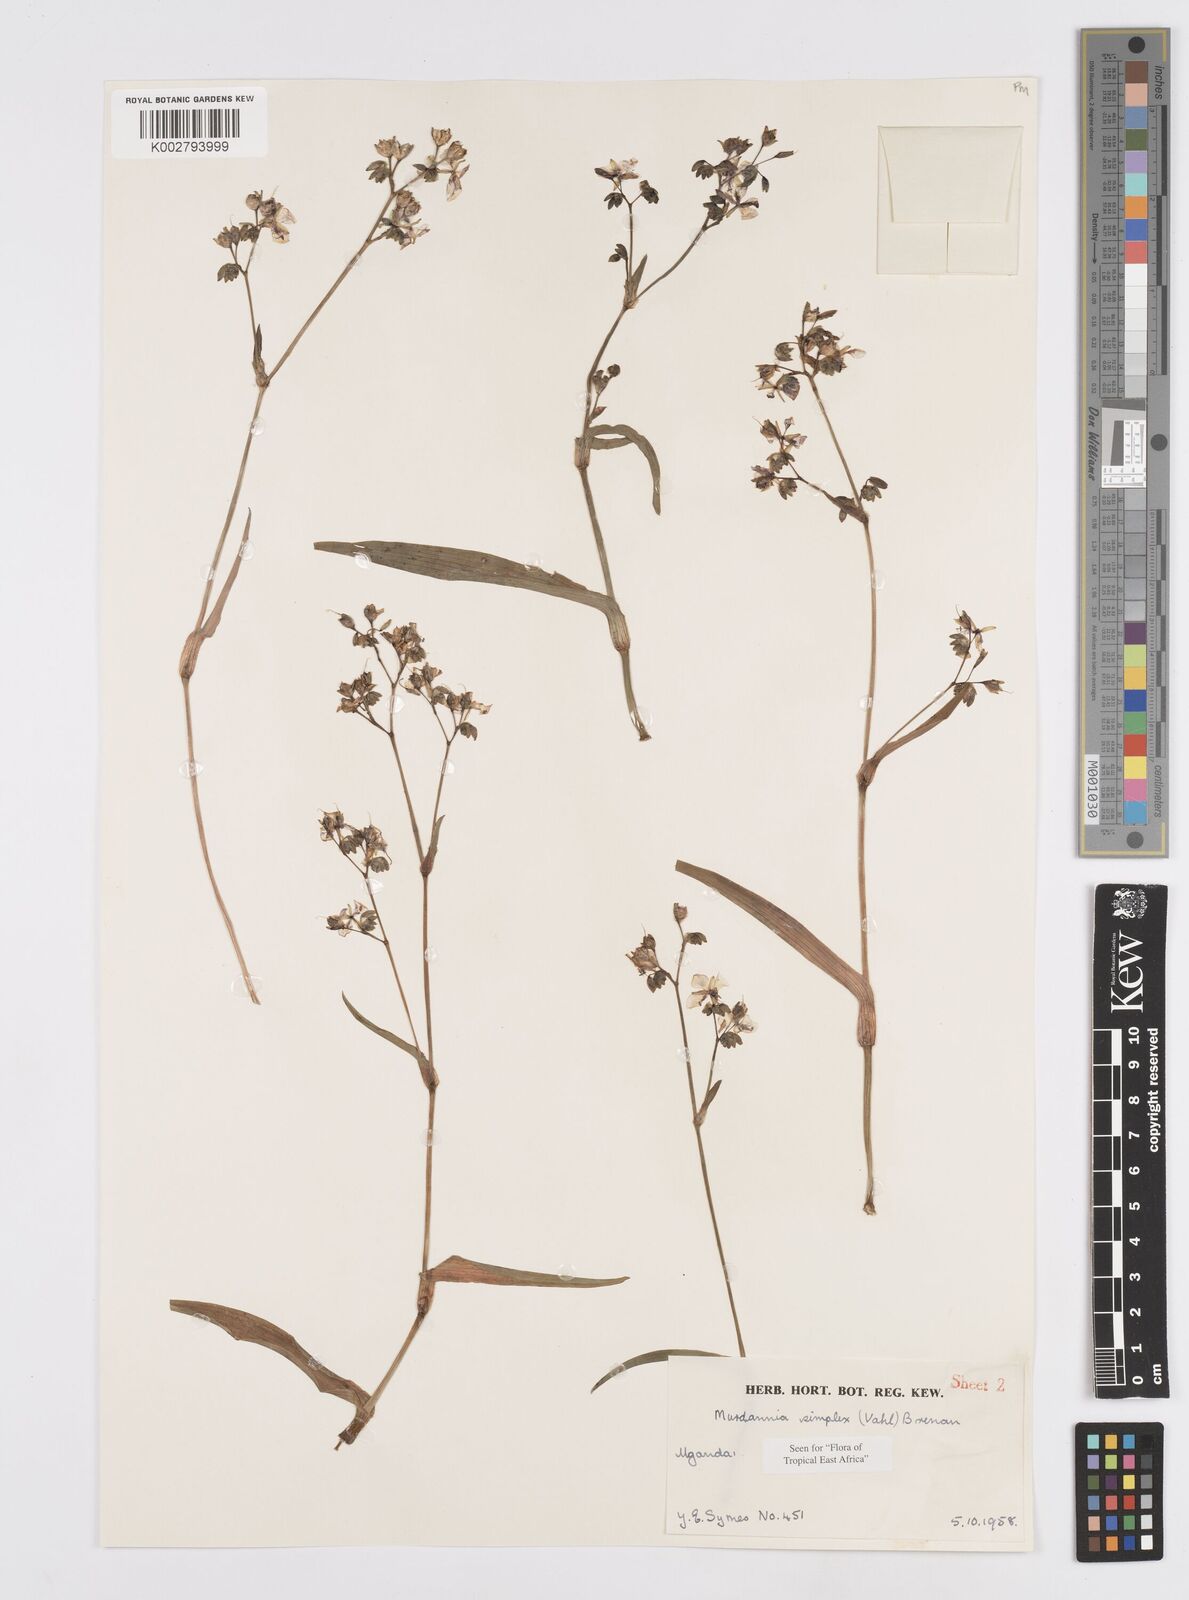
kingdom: Plantae
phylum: Tracheophyta
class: Liliopsida
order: Commelinales
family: Commelinaceae
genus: Murdannia
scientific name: Murdannia simplex
